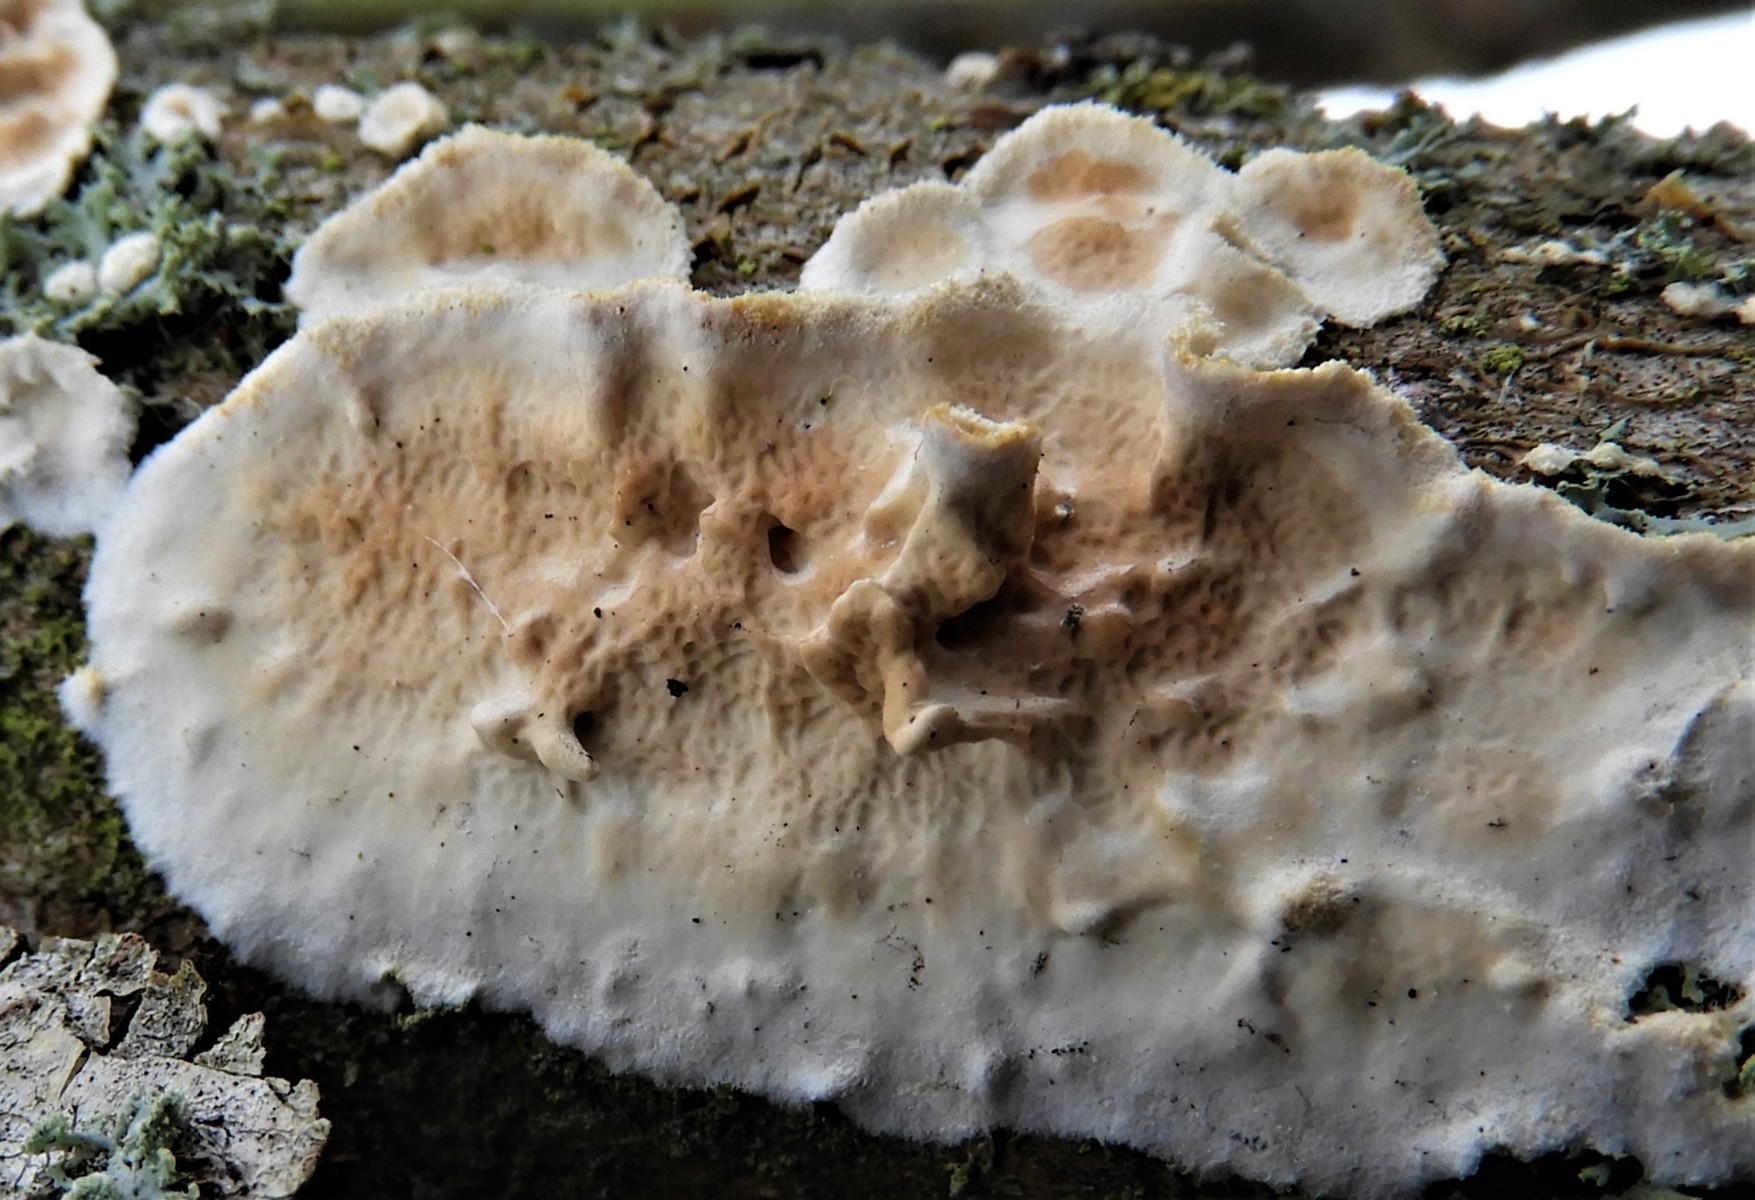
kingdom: Fungi
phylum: Basidiomycota
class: Agaricomycetes
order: Polyporales
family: Irpicaceae
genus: Byssomerulius
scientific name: Byssomerulius corium
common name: læder-åresvamp
